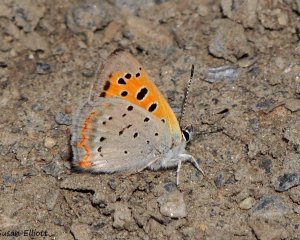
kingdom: Animalia
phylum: Arthropoda
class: Insecta
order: Lepidoptera
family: Lycaenidae
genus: Lycaena
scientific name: Lycaena phlaeas
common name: American Copper
